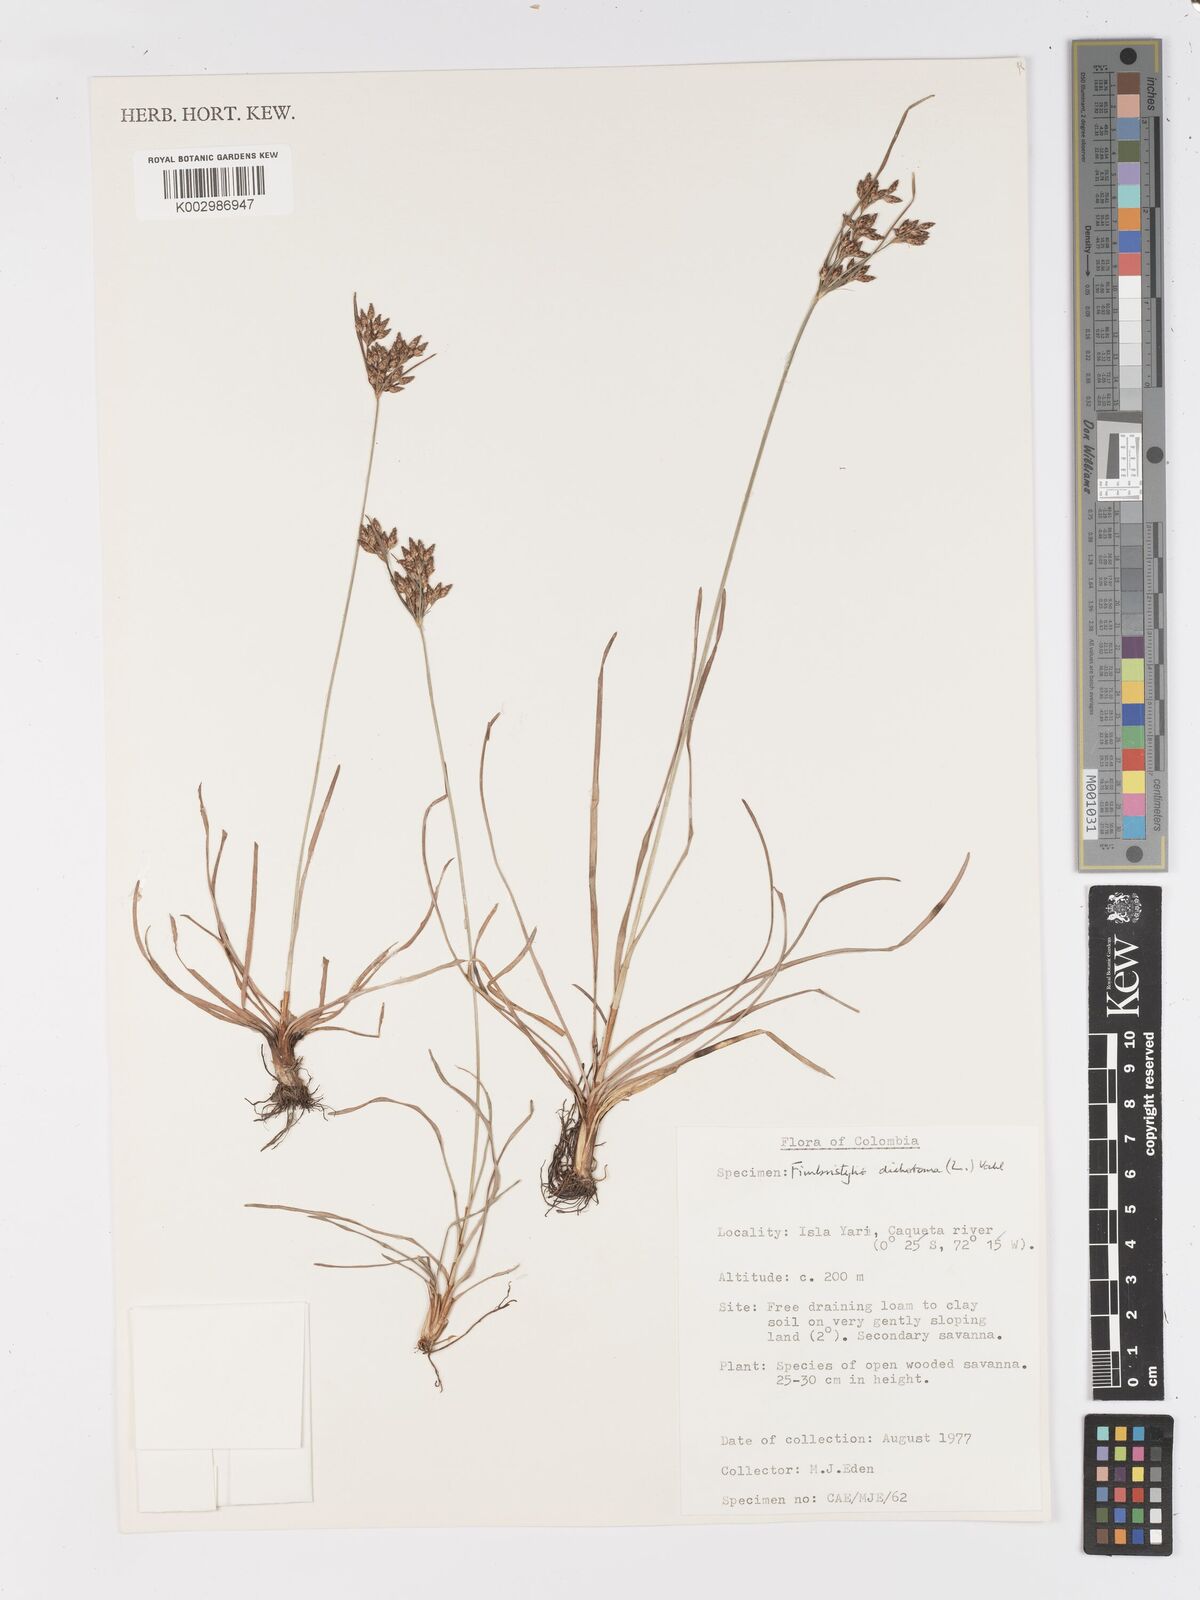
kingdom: Plantae
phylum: Tracheophyta
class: Liliopsida
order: Poales
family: Cyperaceae
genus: Fimbristylis
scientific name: Fimbristylis dichotoma
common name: Forked fimbry
